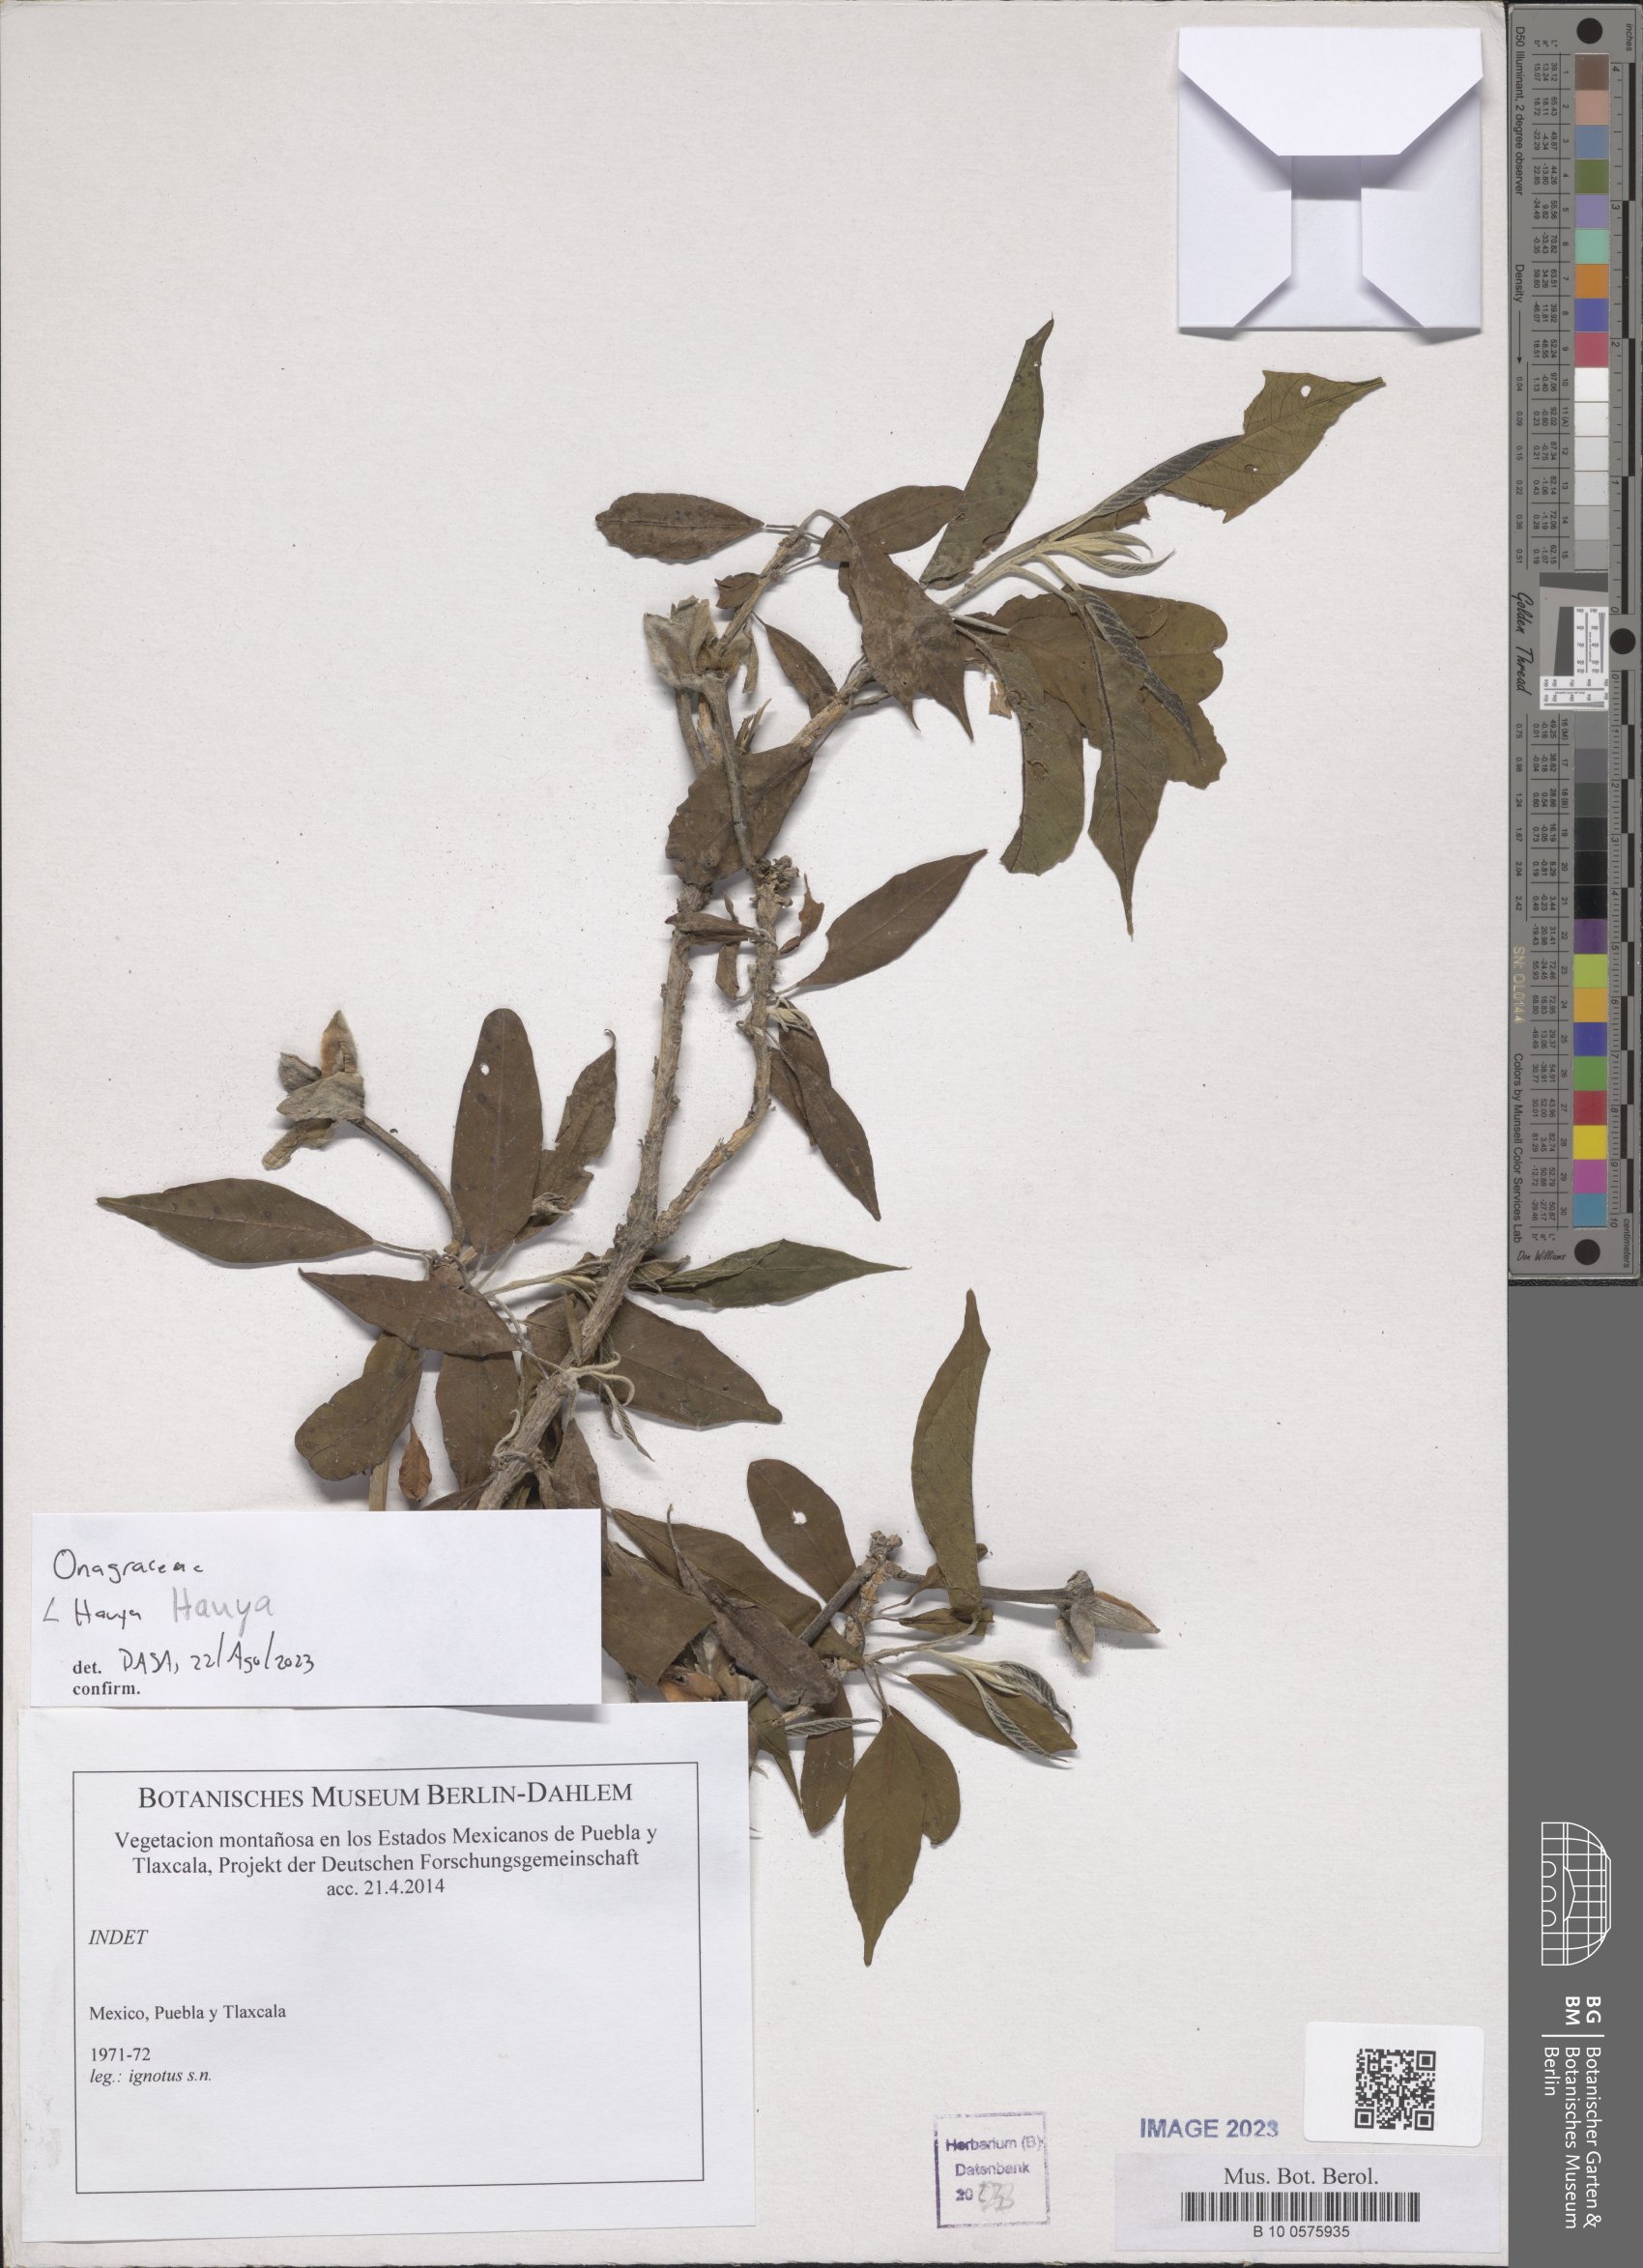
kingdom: Plantae
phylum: Tracheophyta
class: Magnoliopsida
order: Myrtales
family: Onagraceae
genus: Hauya
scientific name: Hauya
